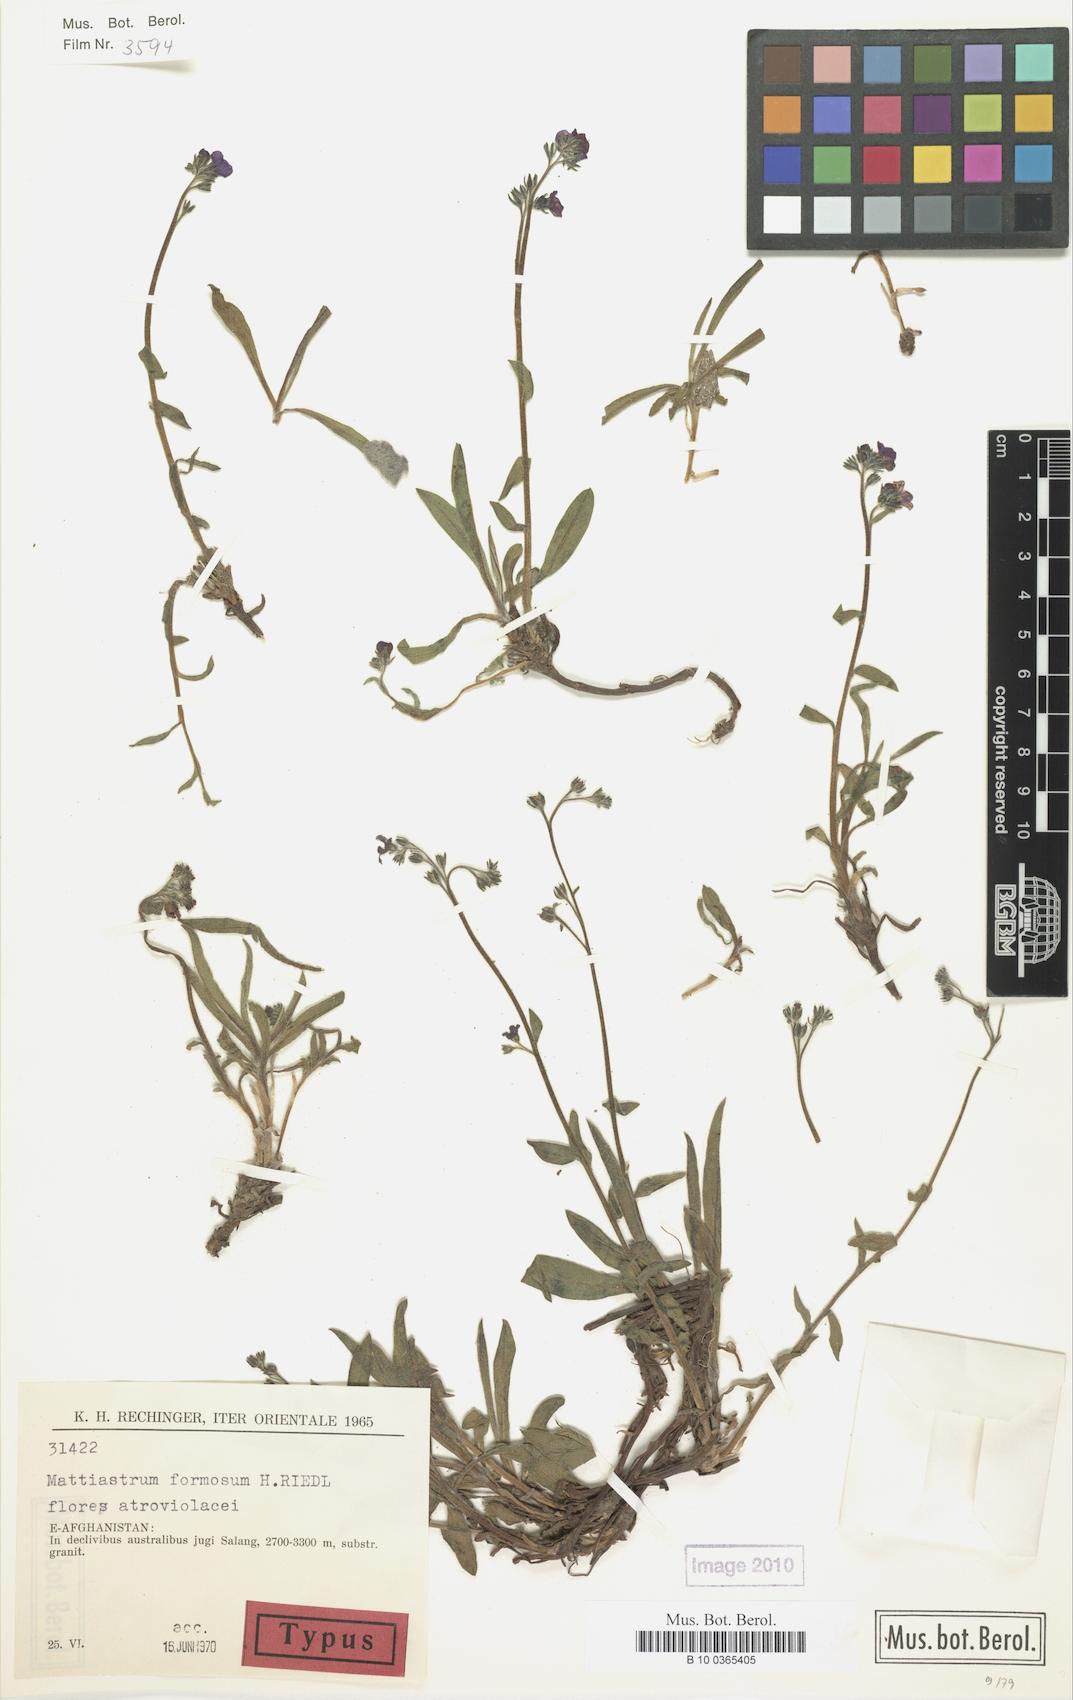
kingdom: Plantae
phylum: Tracheophyta
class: Magnoliopsida
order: Boraginales
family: Boraginaceae
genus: Paracaryum
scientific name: Paracaryum rechingeri
